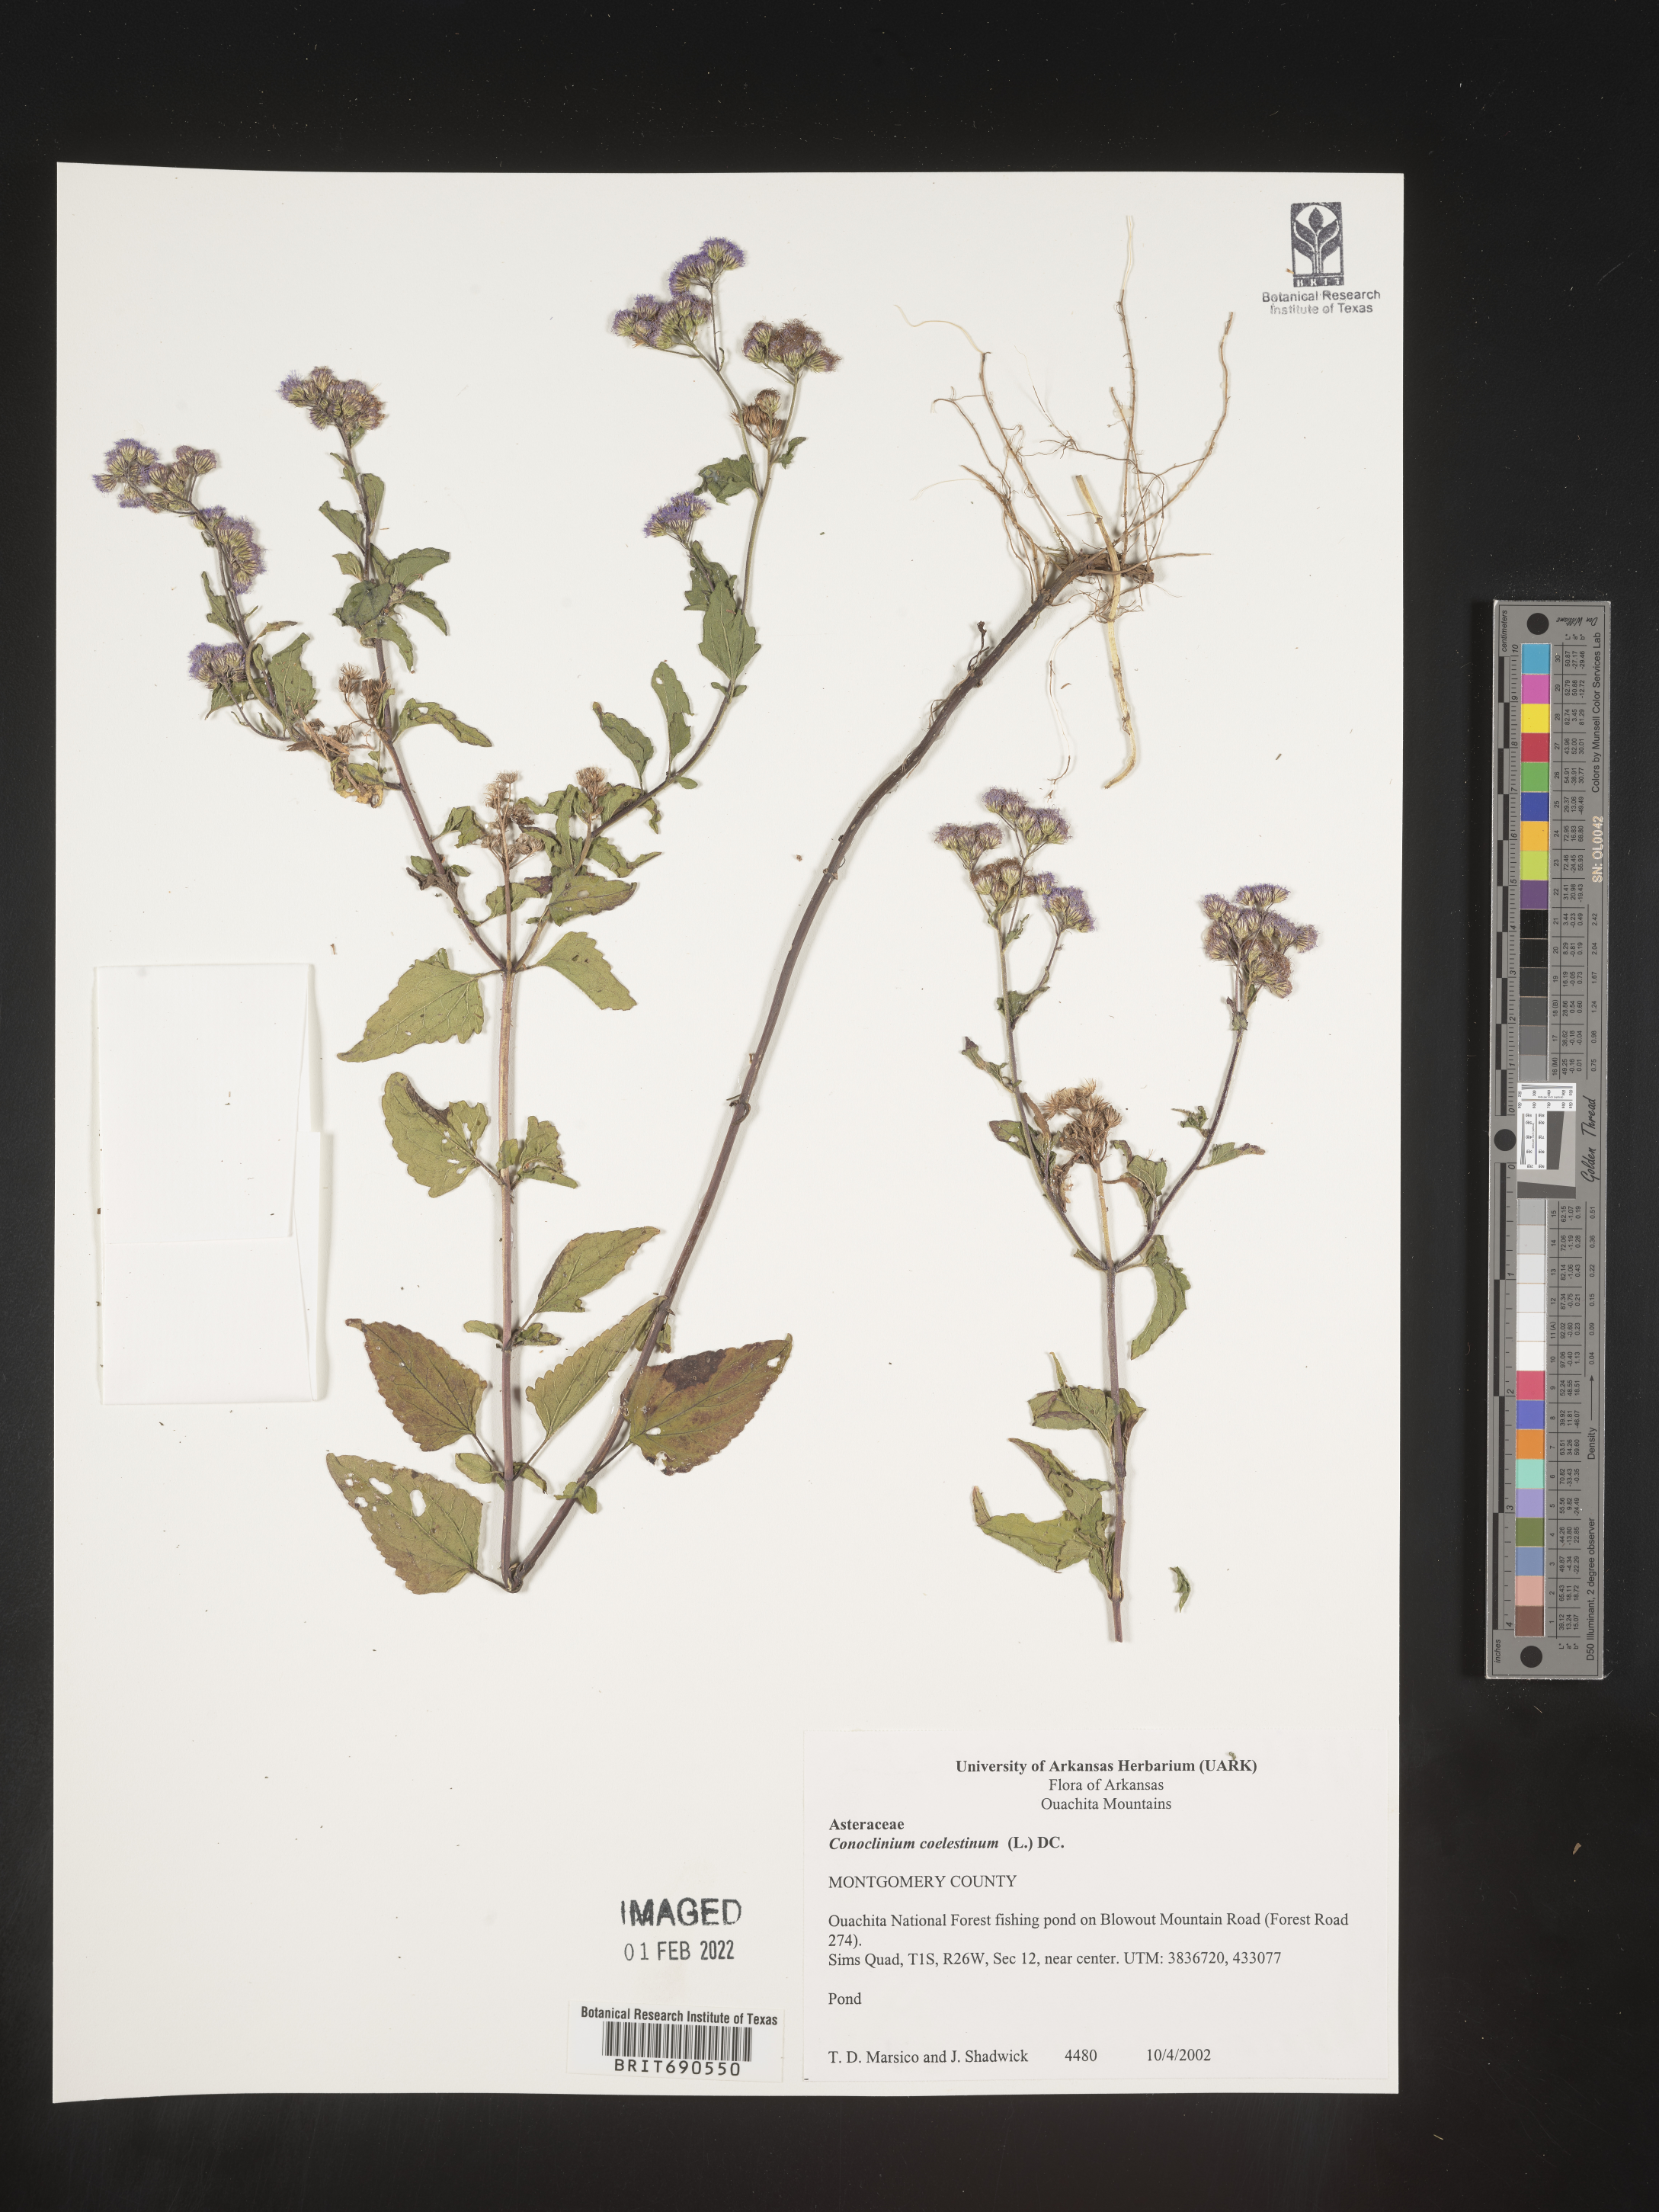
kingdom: Plantae
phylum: Tracheophyta
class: Magnoliopsida
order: Asterales
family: Asteraceae
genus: Conoclinium
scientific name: Conoclinium coelestinum
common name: Blue mistflower
